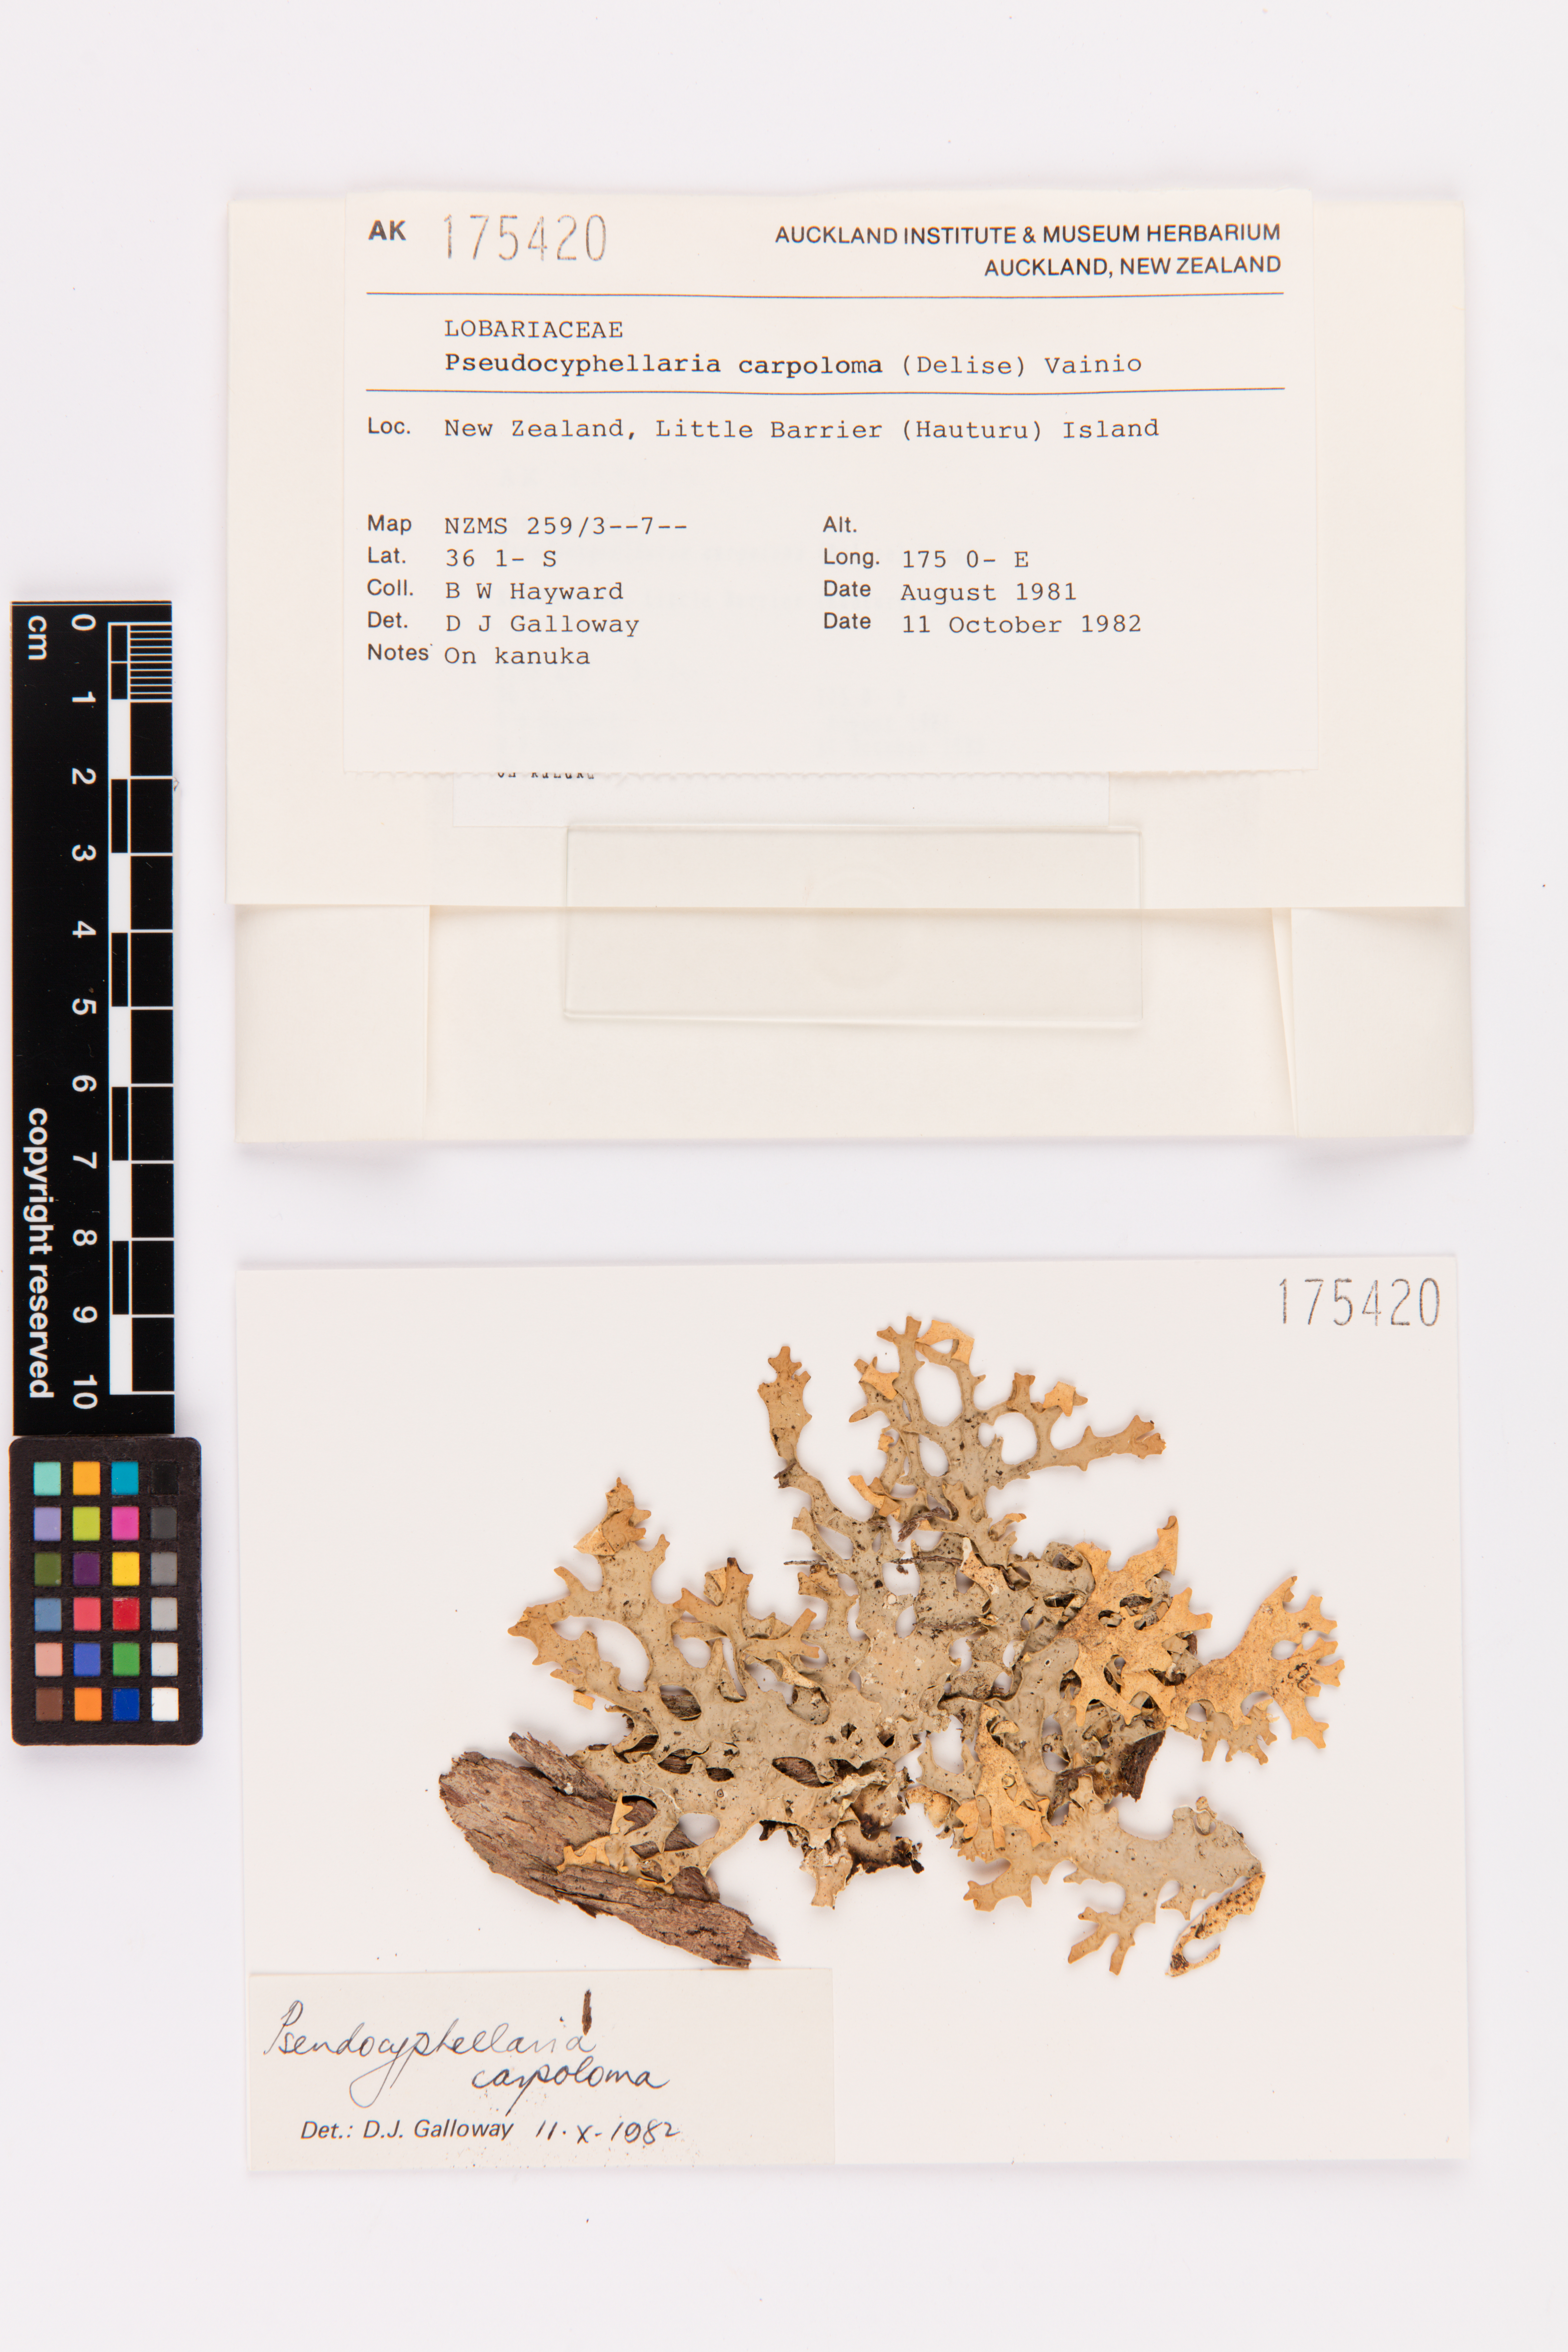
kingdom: Fungi
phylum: Ascomycota
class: Lecanoromycetes
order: Peltigerales
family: Lobariaceae
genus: Pseudocyphellaria
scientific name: Pseudocyphellaria carpoloma
